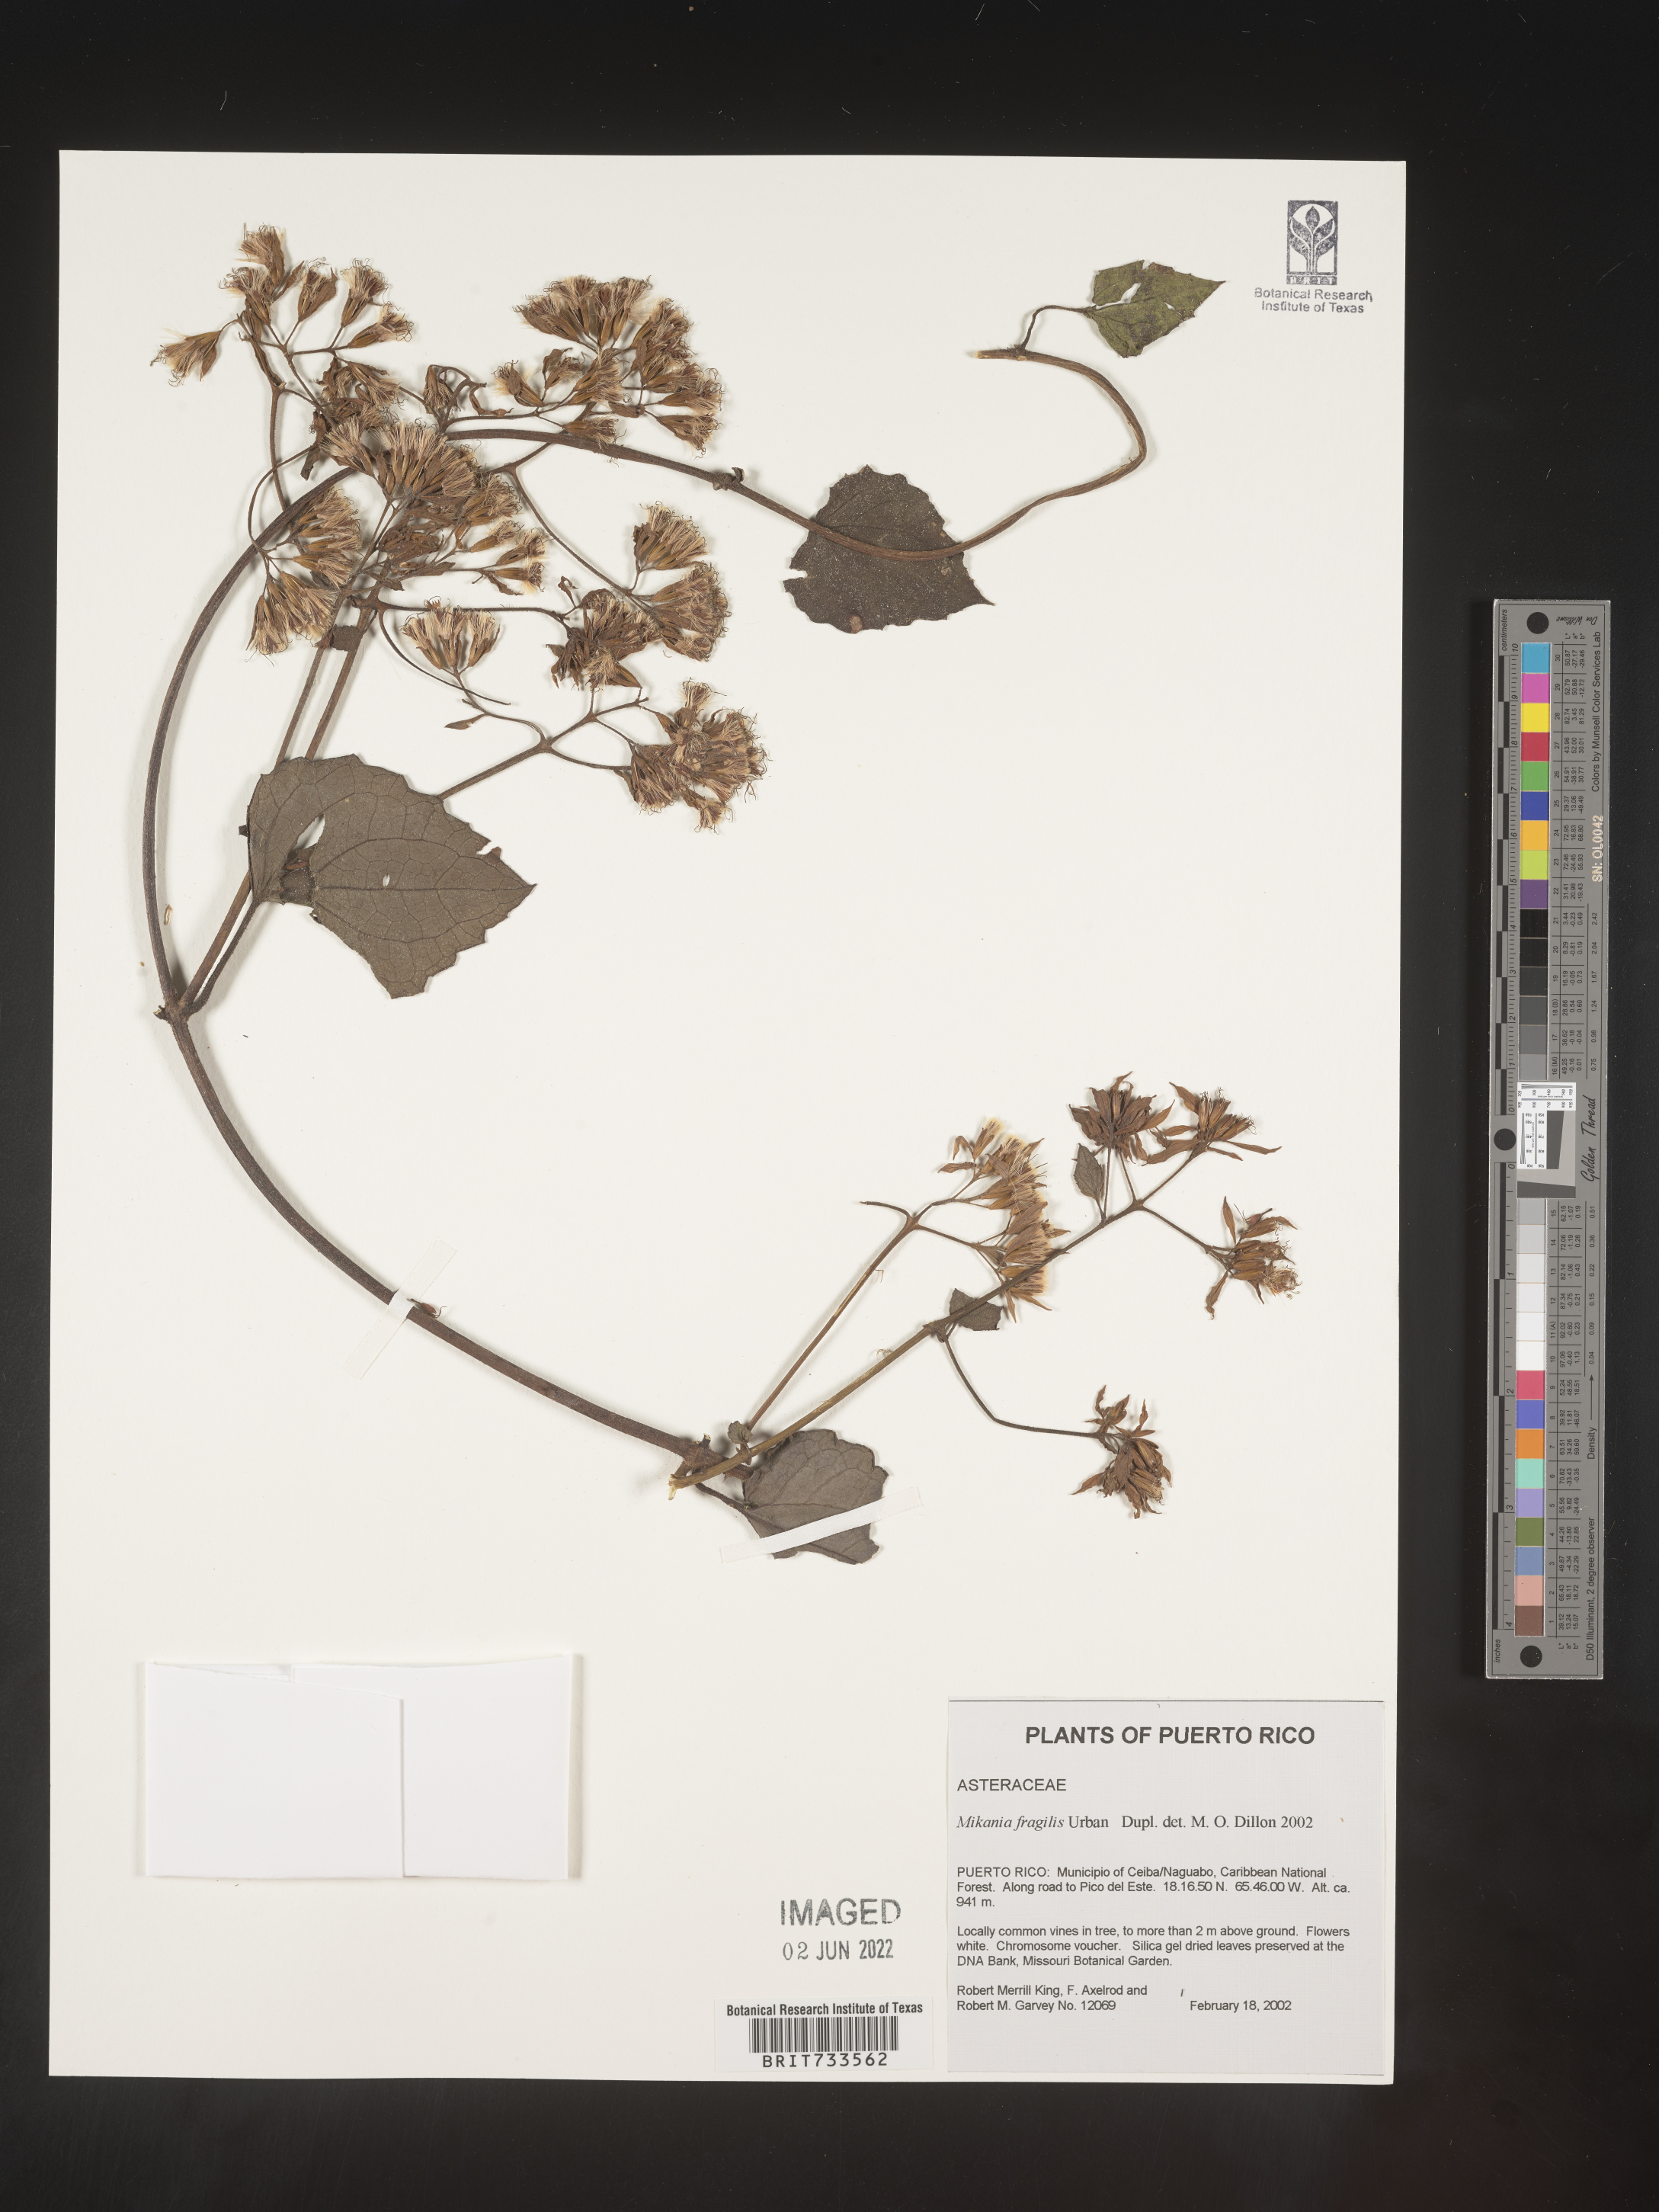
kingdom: Plantae
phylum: Tracheophyta
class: Magnoliopsida
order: Asterales
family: Asteraceae
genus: Mikania
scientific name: Mikania
